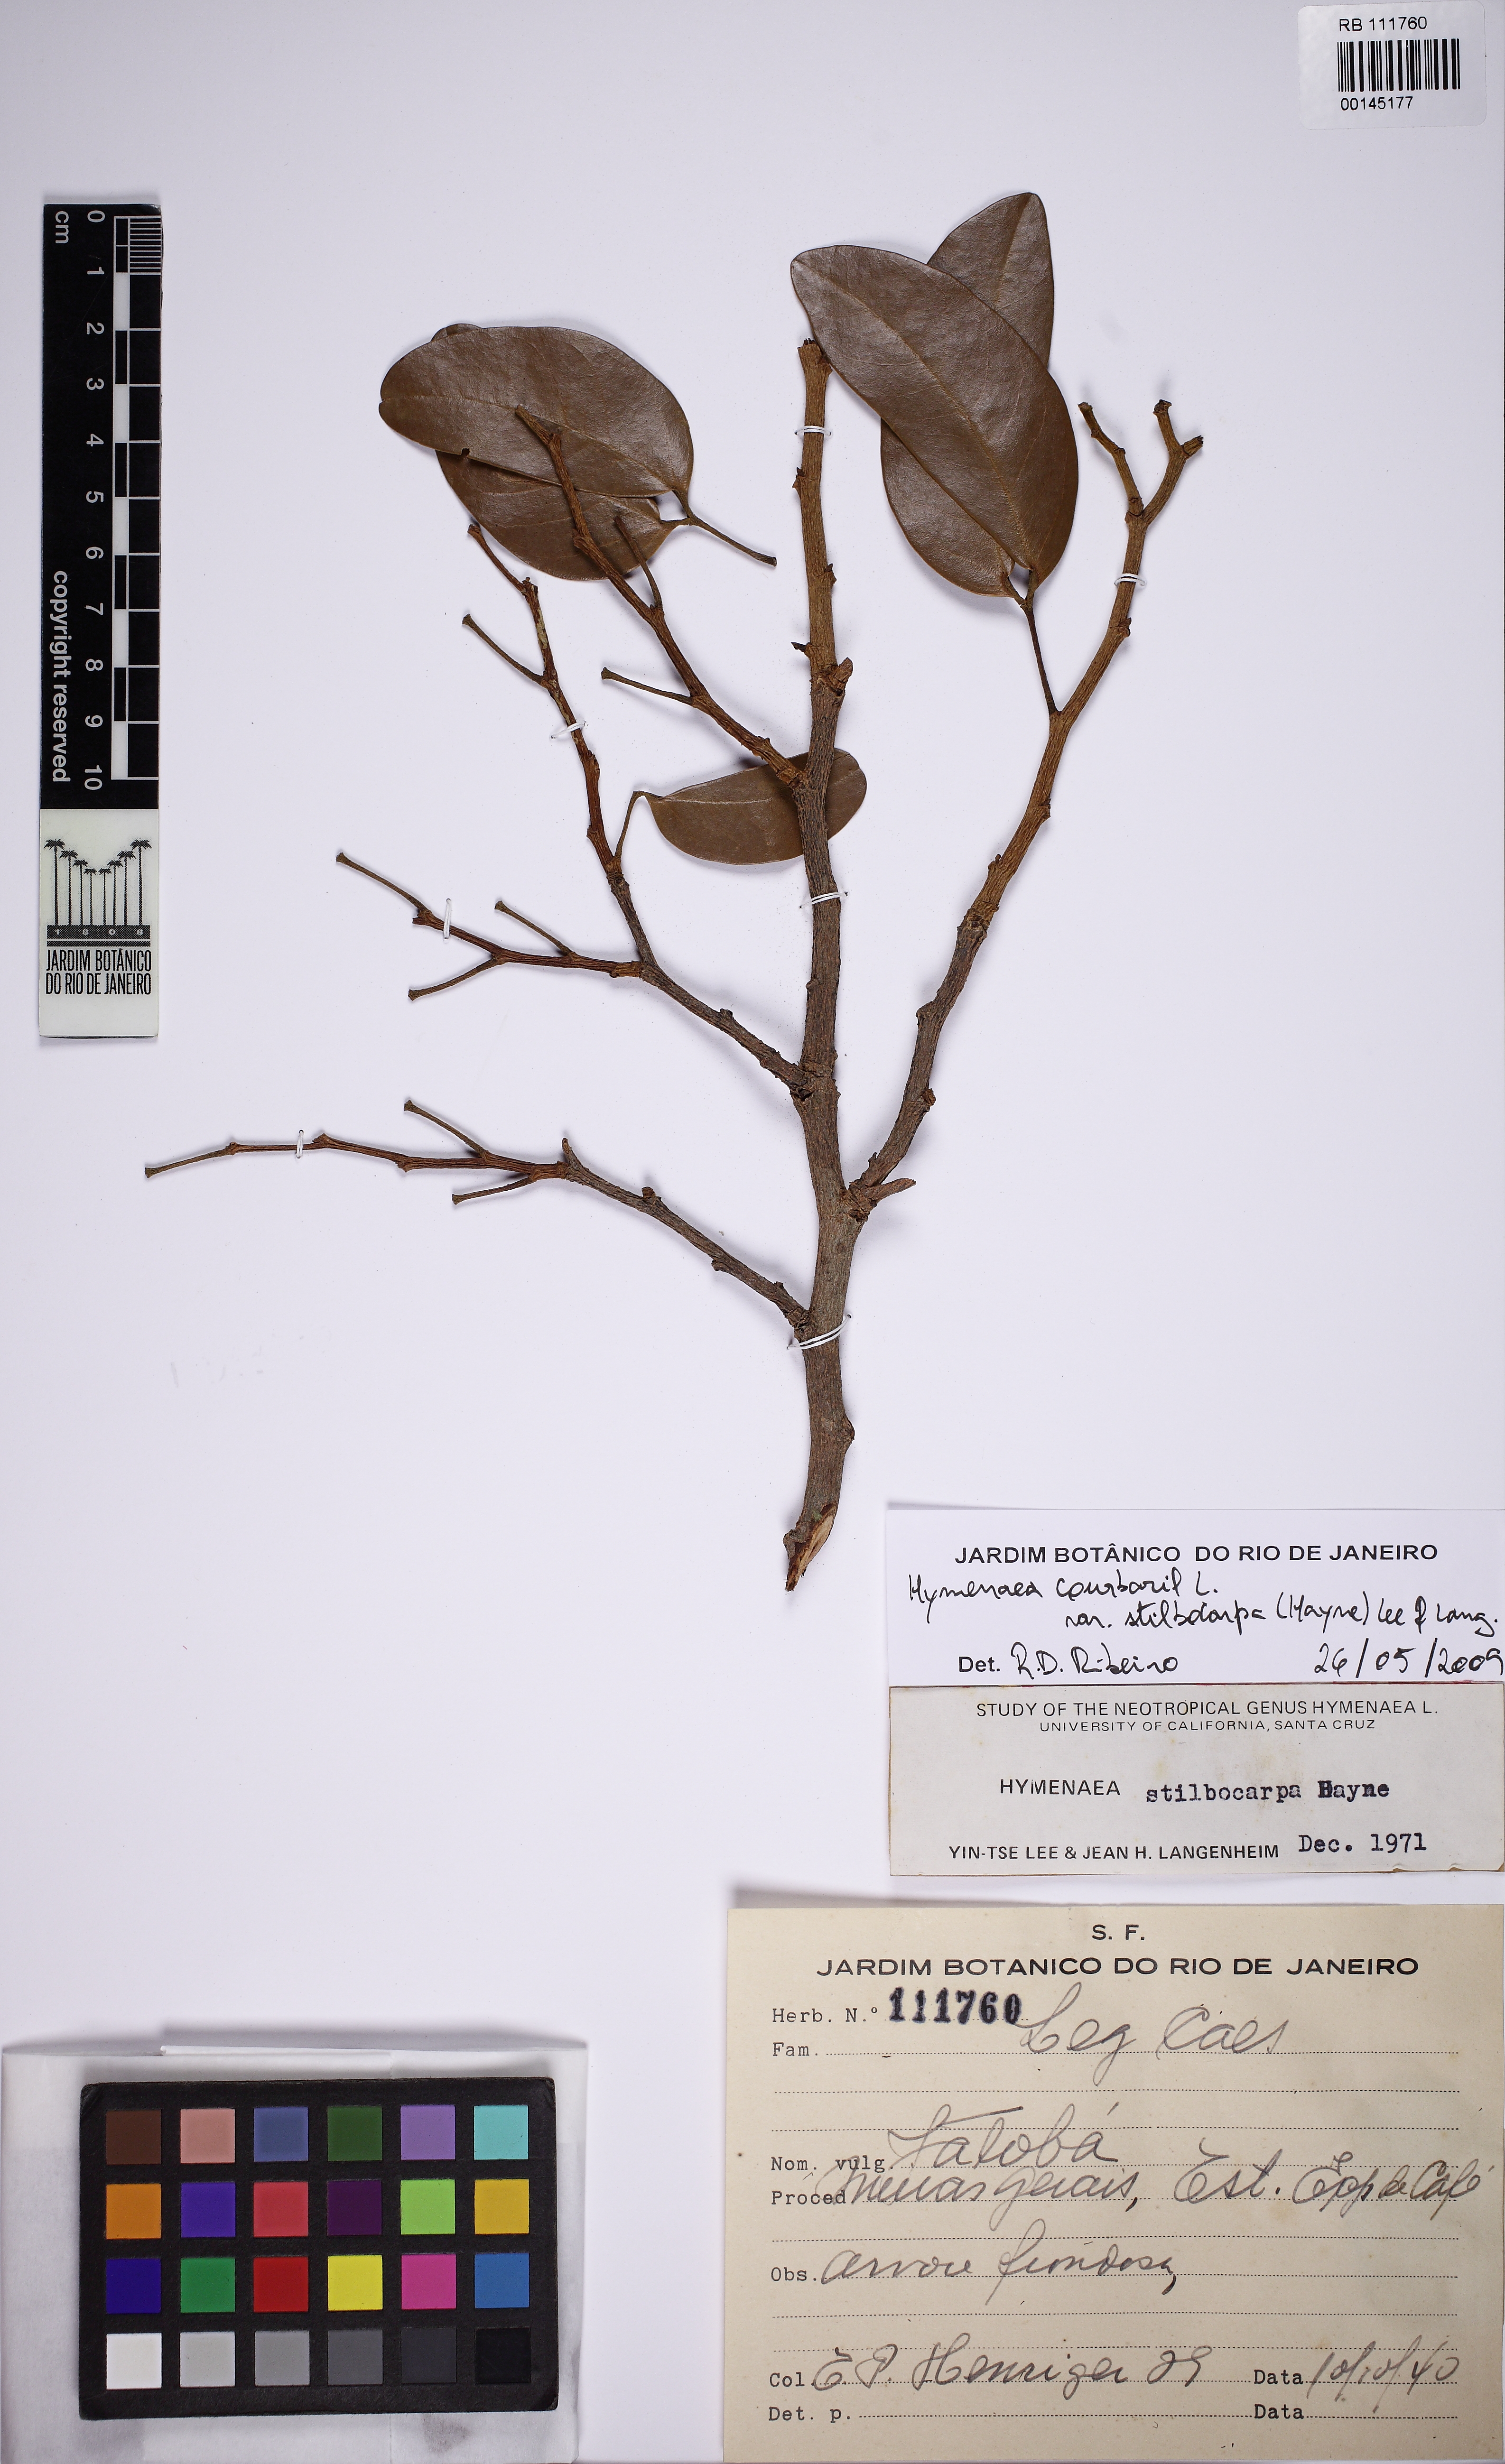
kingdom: Plantae
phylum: Tracheophyta
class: Magnoliopsida
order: Fabales
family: Fabaceae
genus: Hymenaea
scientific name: Hymenaea courbaril
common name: Brazilian copal
